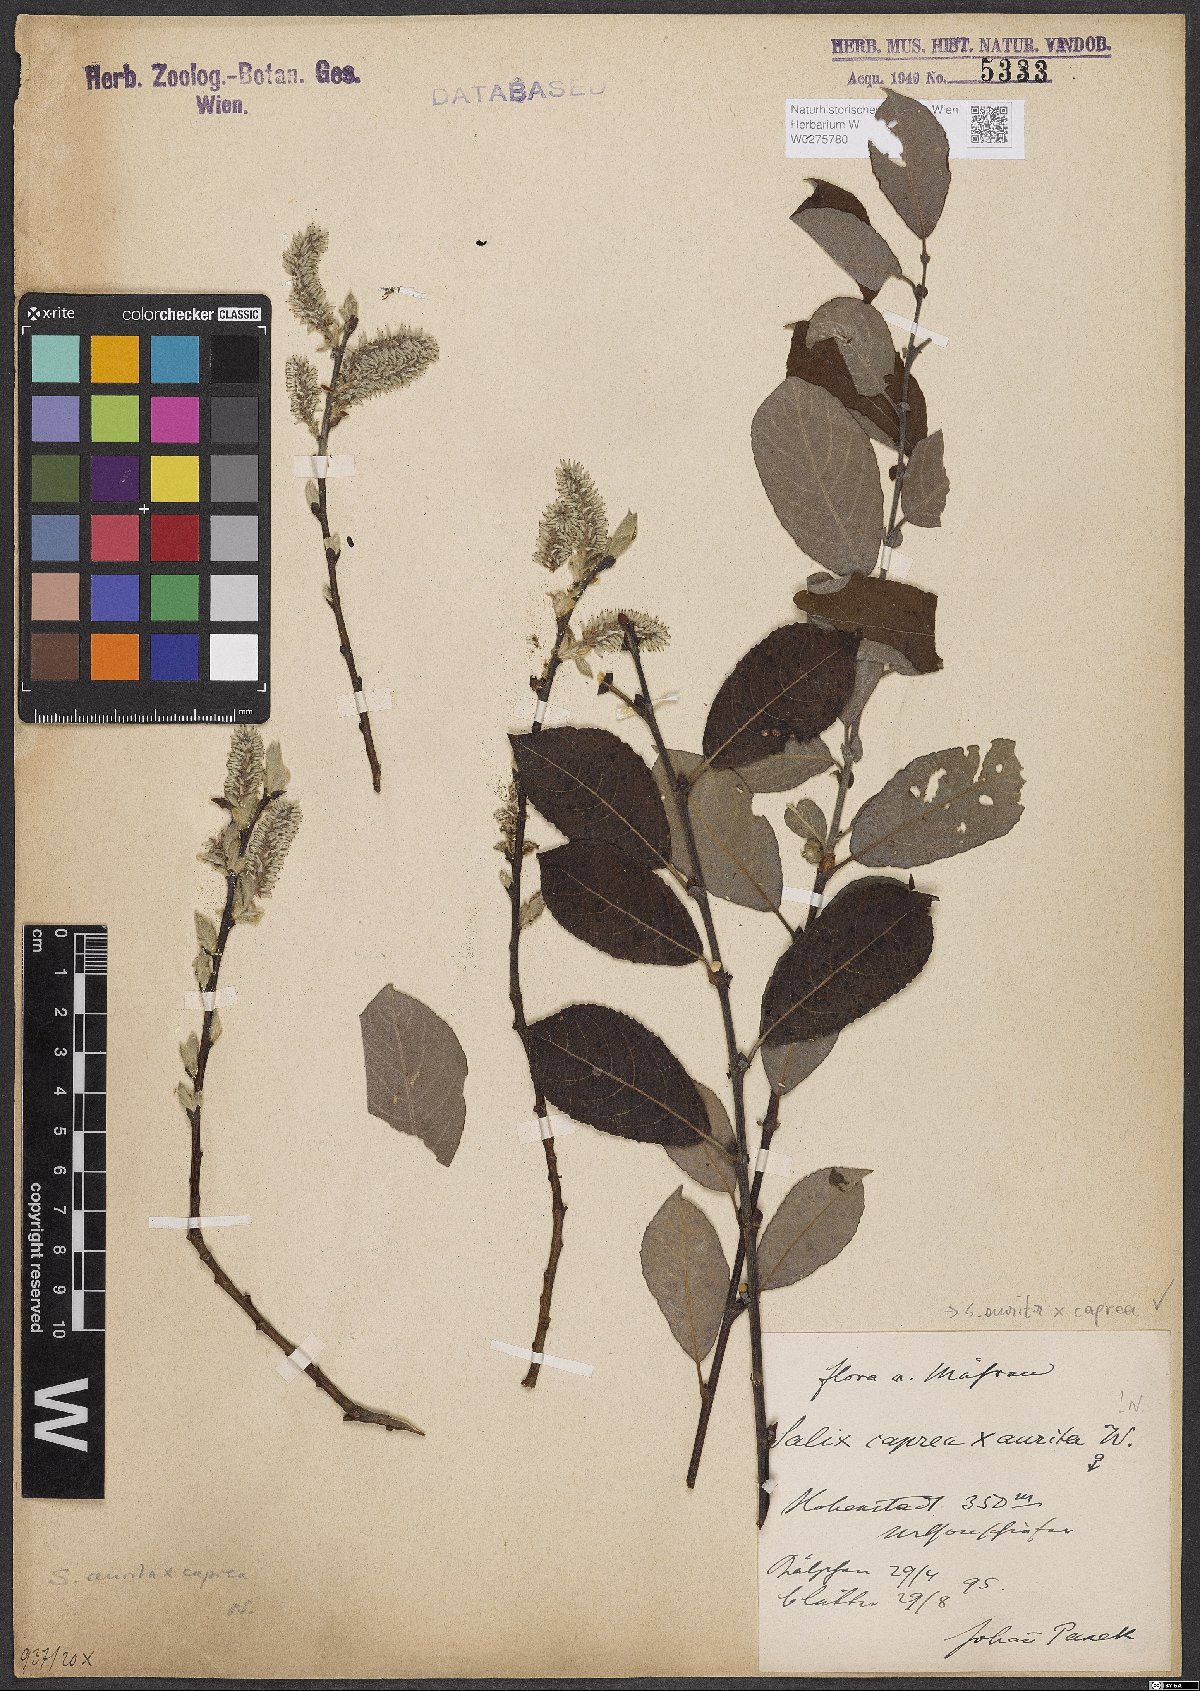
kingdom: Plantae
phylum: Tracheophyta
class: Magnoliopsida
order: Malpighiales
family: Salicaceae
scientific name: Salicaceae
